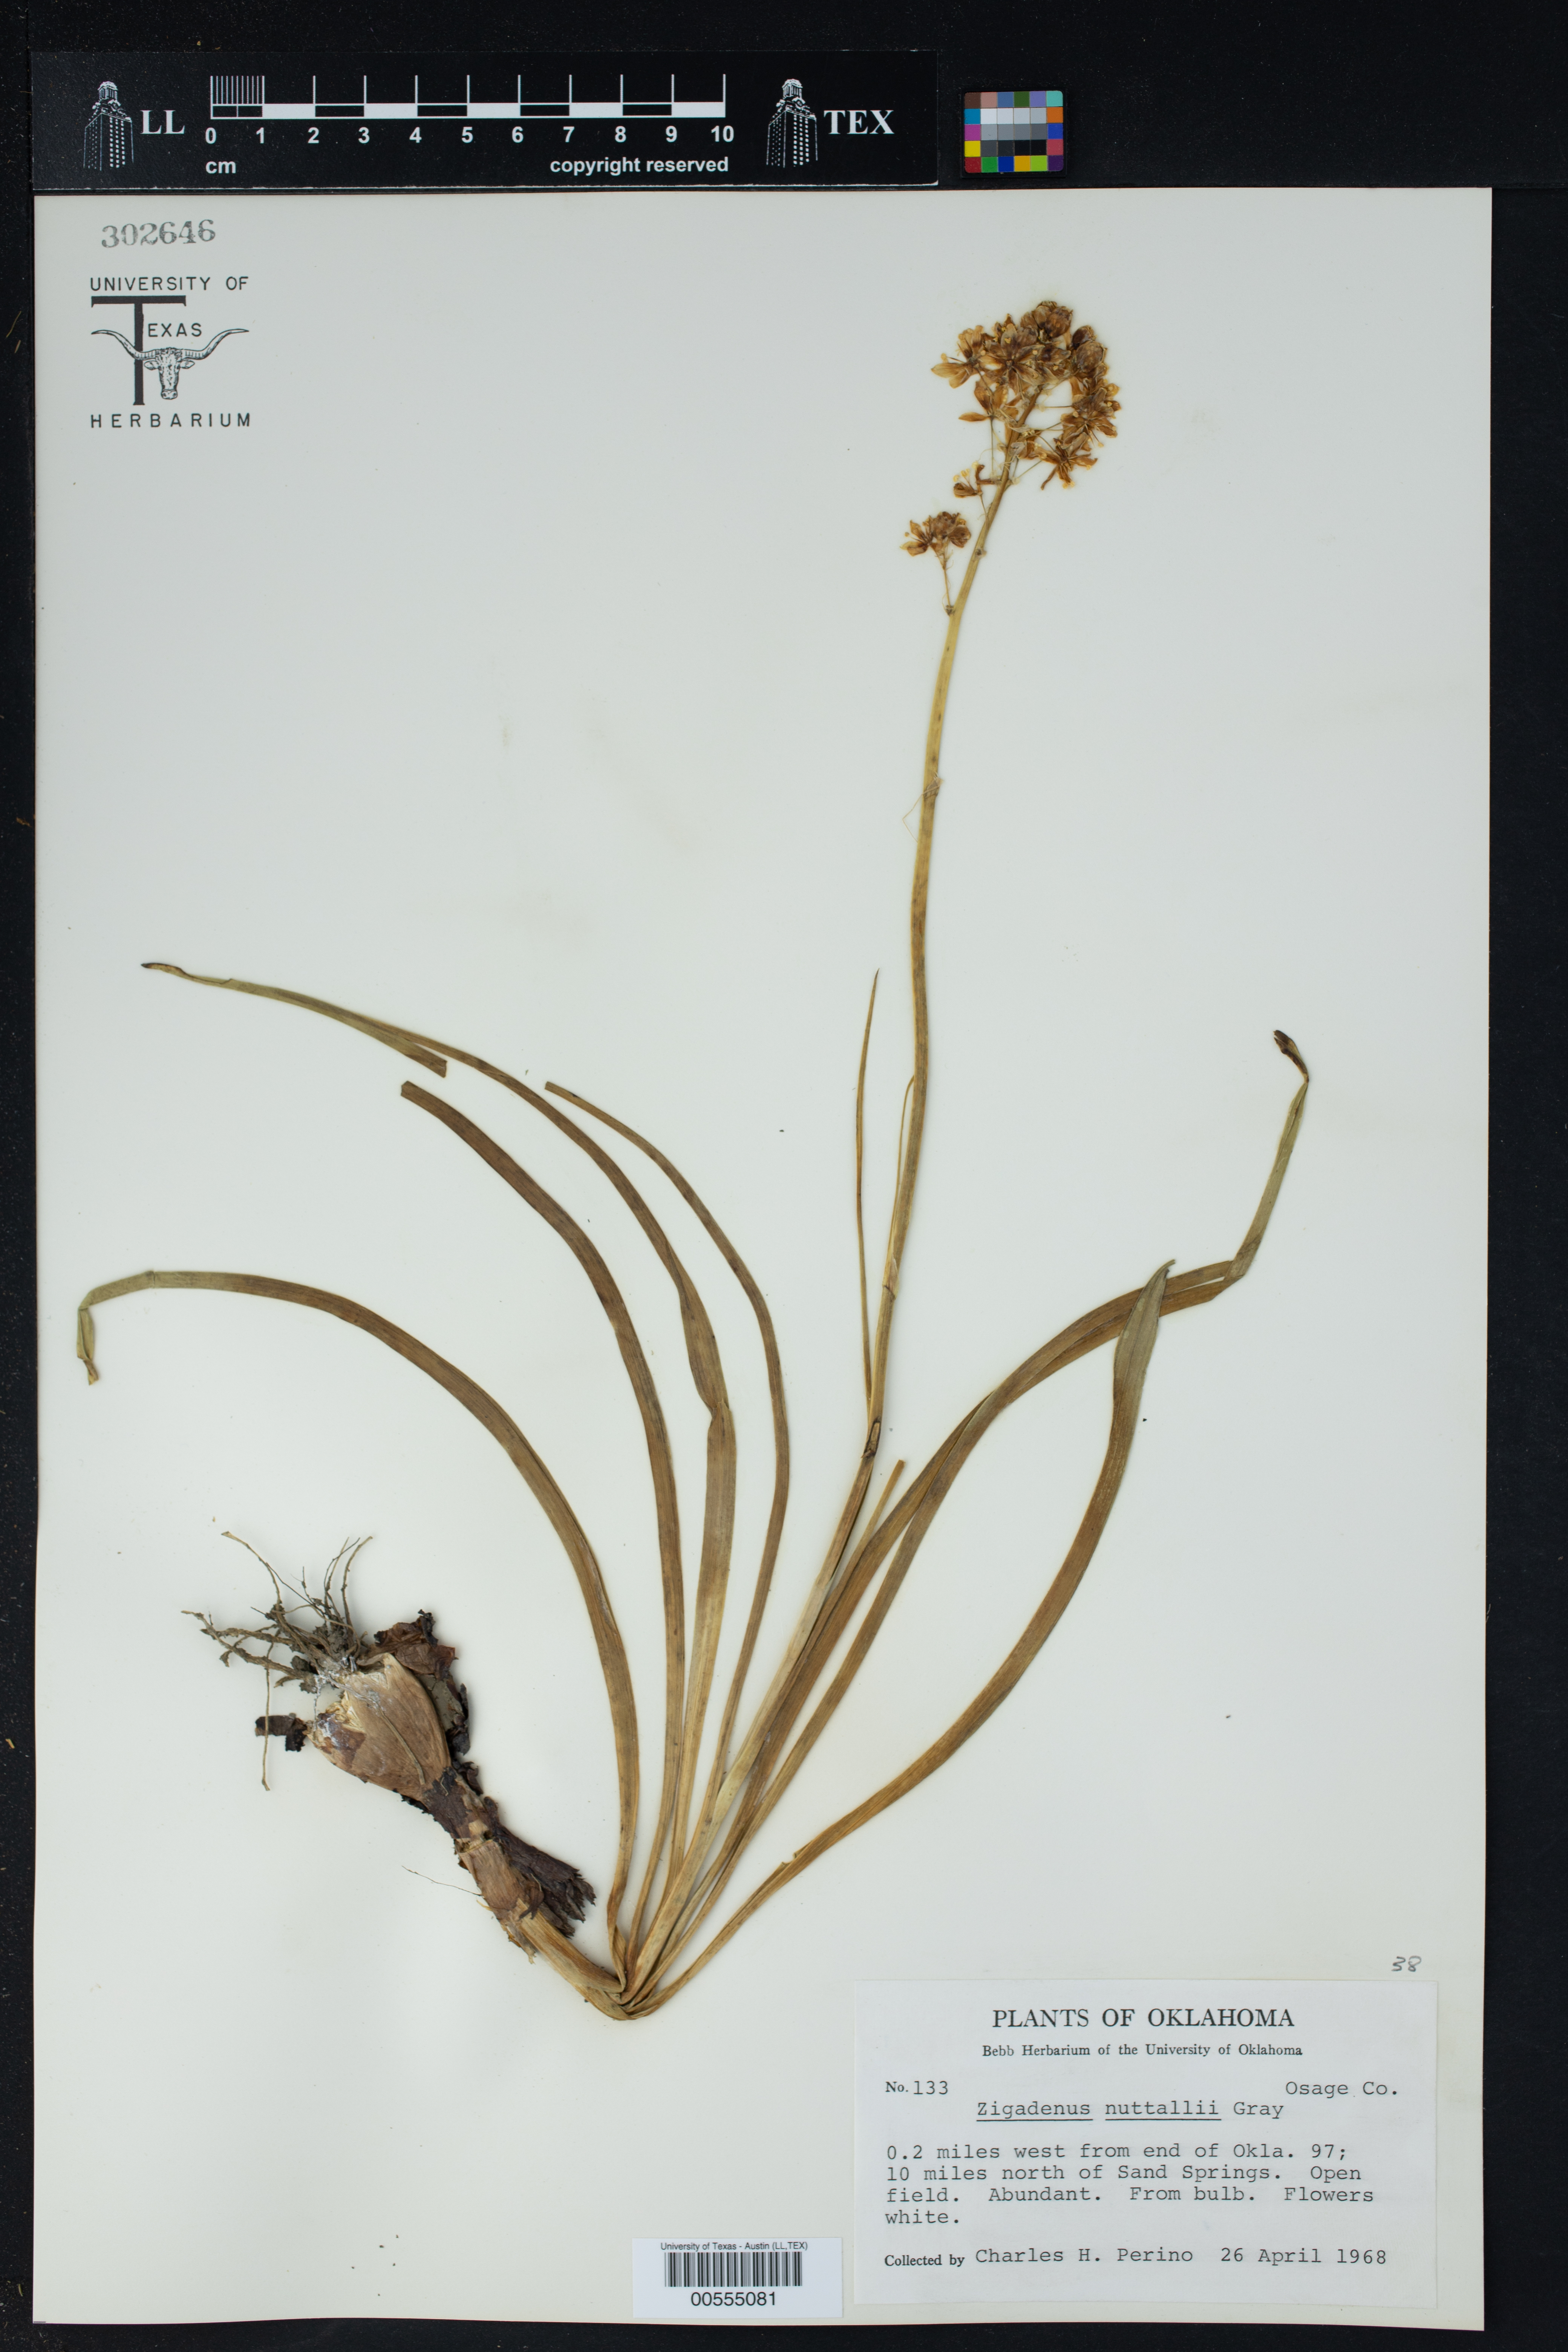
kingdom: Plantae
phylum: Tracheophyta
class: Liliopsida
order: Liliales
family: Melanthiaceae
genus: Toxicoscordion
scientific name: Toxicoscordion nuttallii
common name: Poison sego
